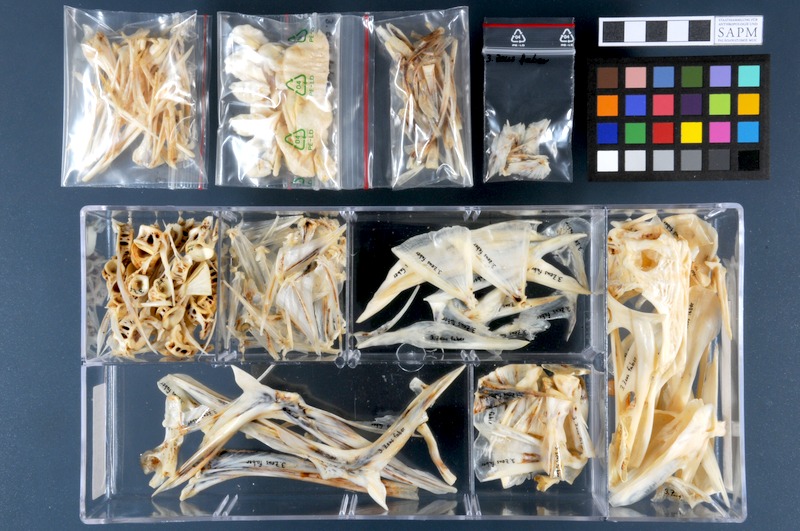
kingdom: Animalia
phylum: Chordata
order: Zeiformes
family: Zeidae
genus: Zeus
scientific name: Zeus faber
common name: John dory
